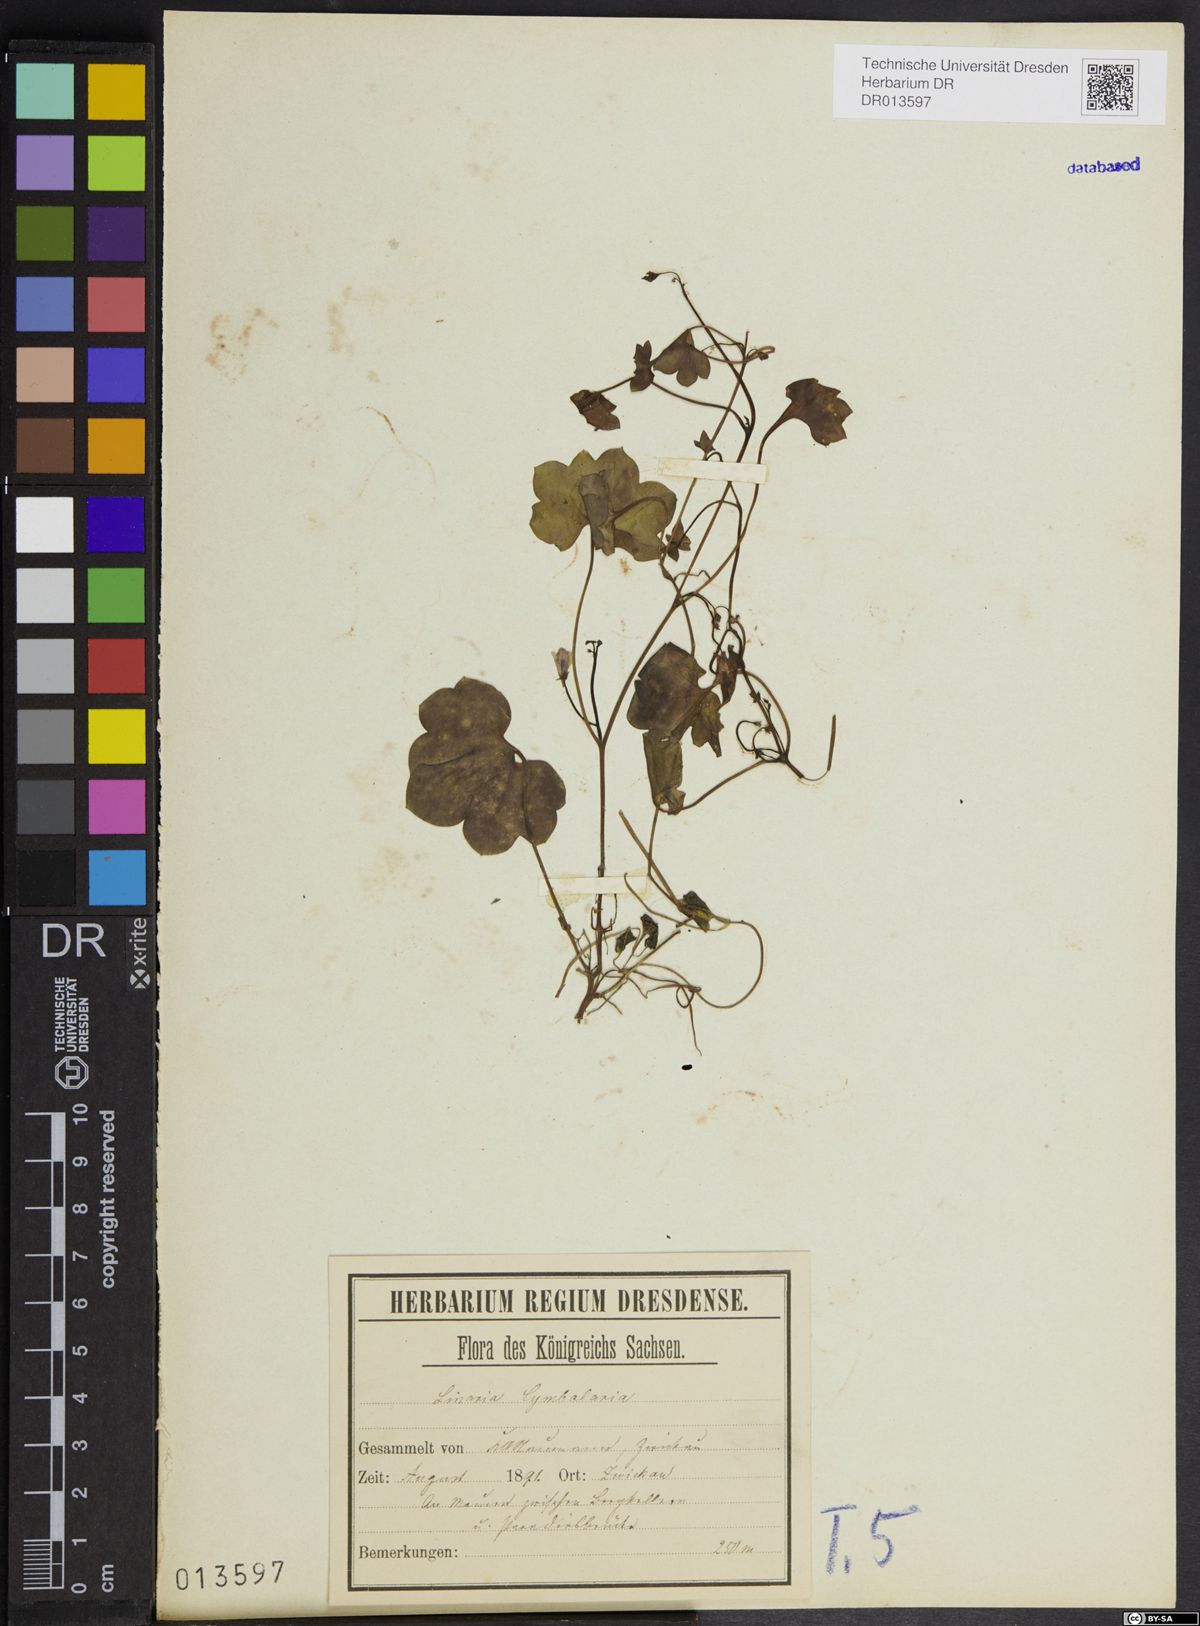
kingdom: Plantae
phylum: Tracheophyta
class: Magnoliopsida
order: Lamiales
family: Plantaginaceae
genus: Cymbalaria
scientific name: Cymbalaria muralis
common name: Ivy-leaved toadflax
